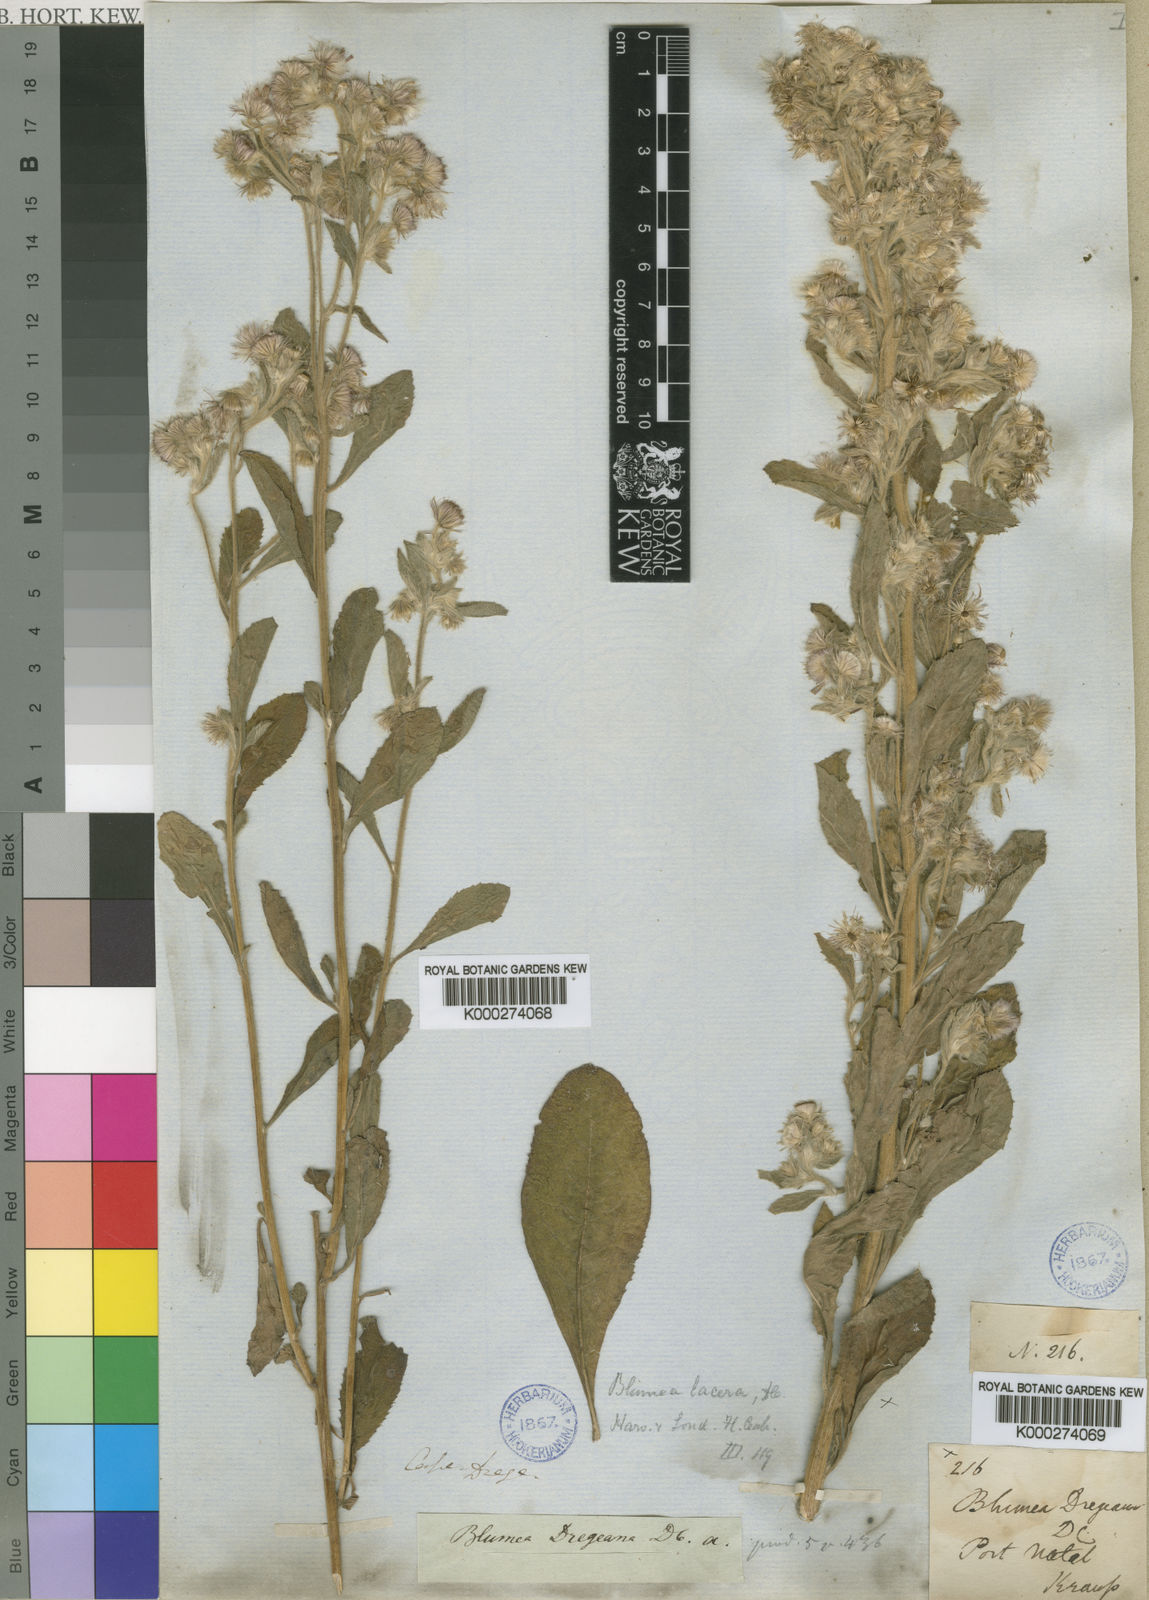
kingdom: Plantae
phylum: Tracheophyta
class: Magnoliopsida
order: Asterales
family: Asteraceae
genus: Blumea
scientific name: Blumea lacera
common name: Malay blumea
